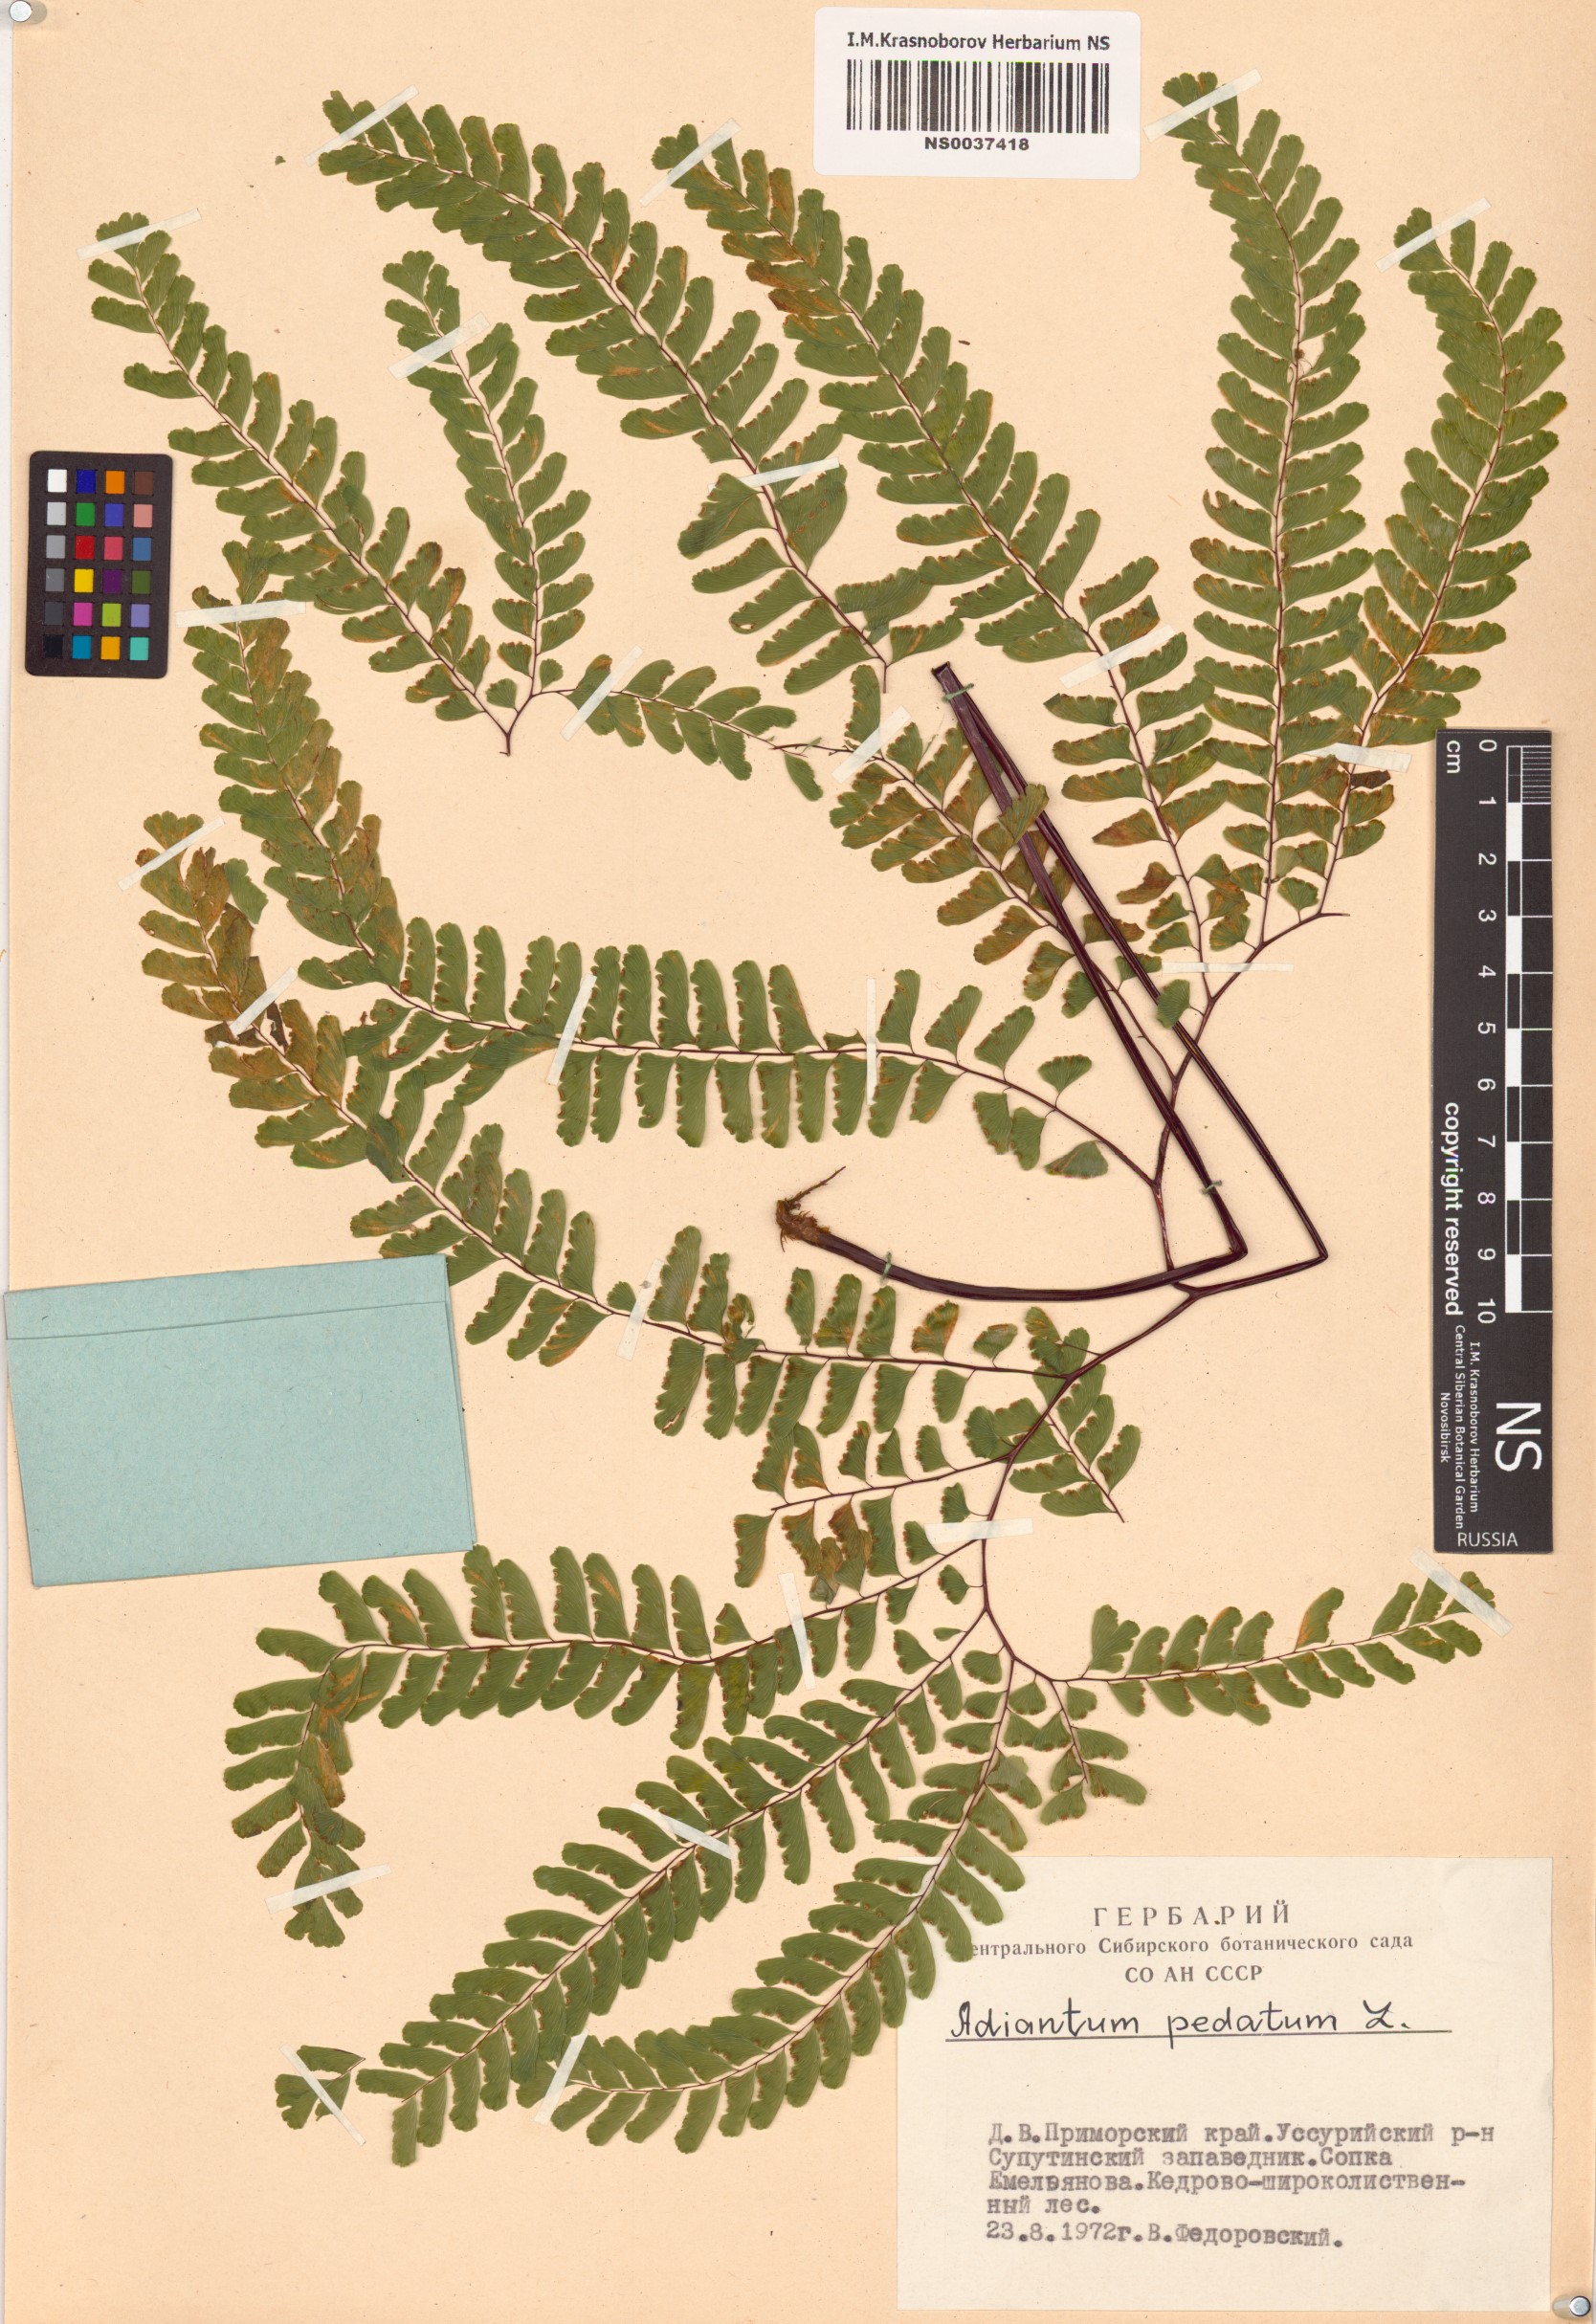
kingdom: Plantae
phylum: Tracheophyta
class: Polypodiopsida
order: Polypodiales
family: Pteridaceae
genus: Adiantum
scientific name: Adiantum pedatum
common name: Five-finger fern
